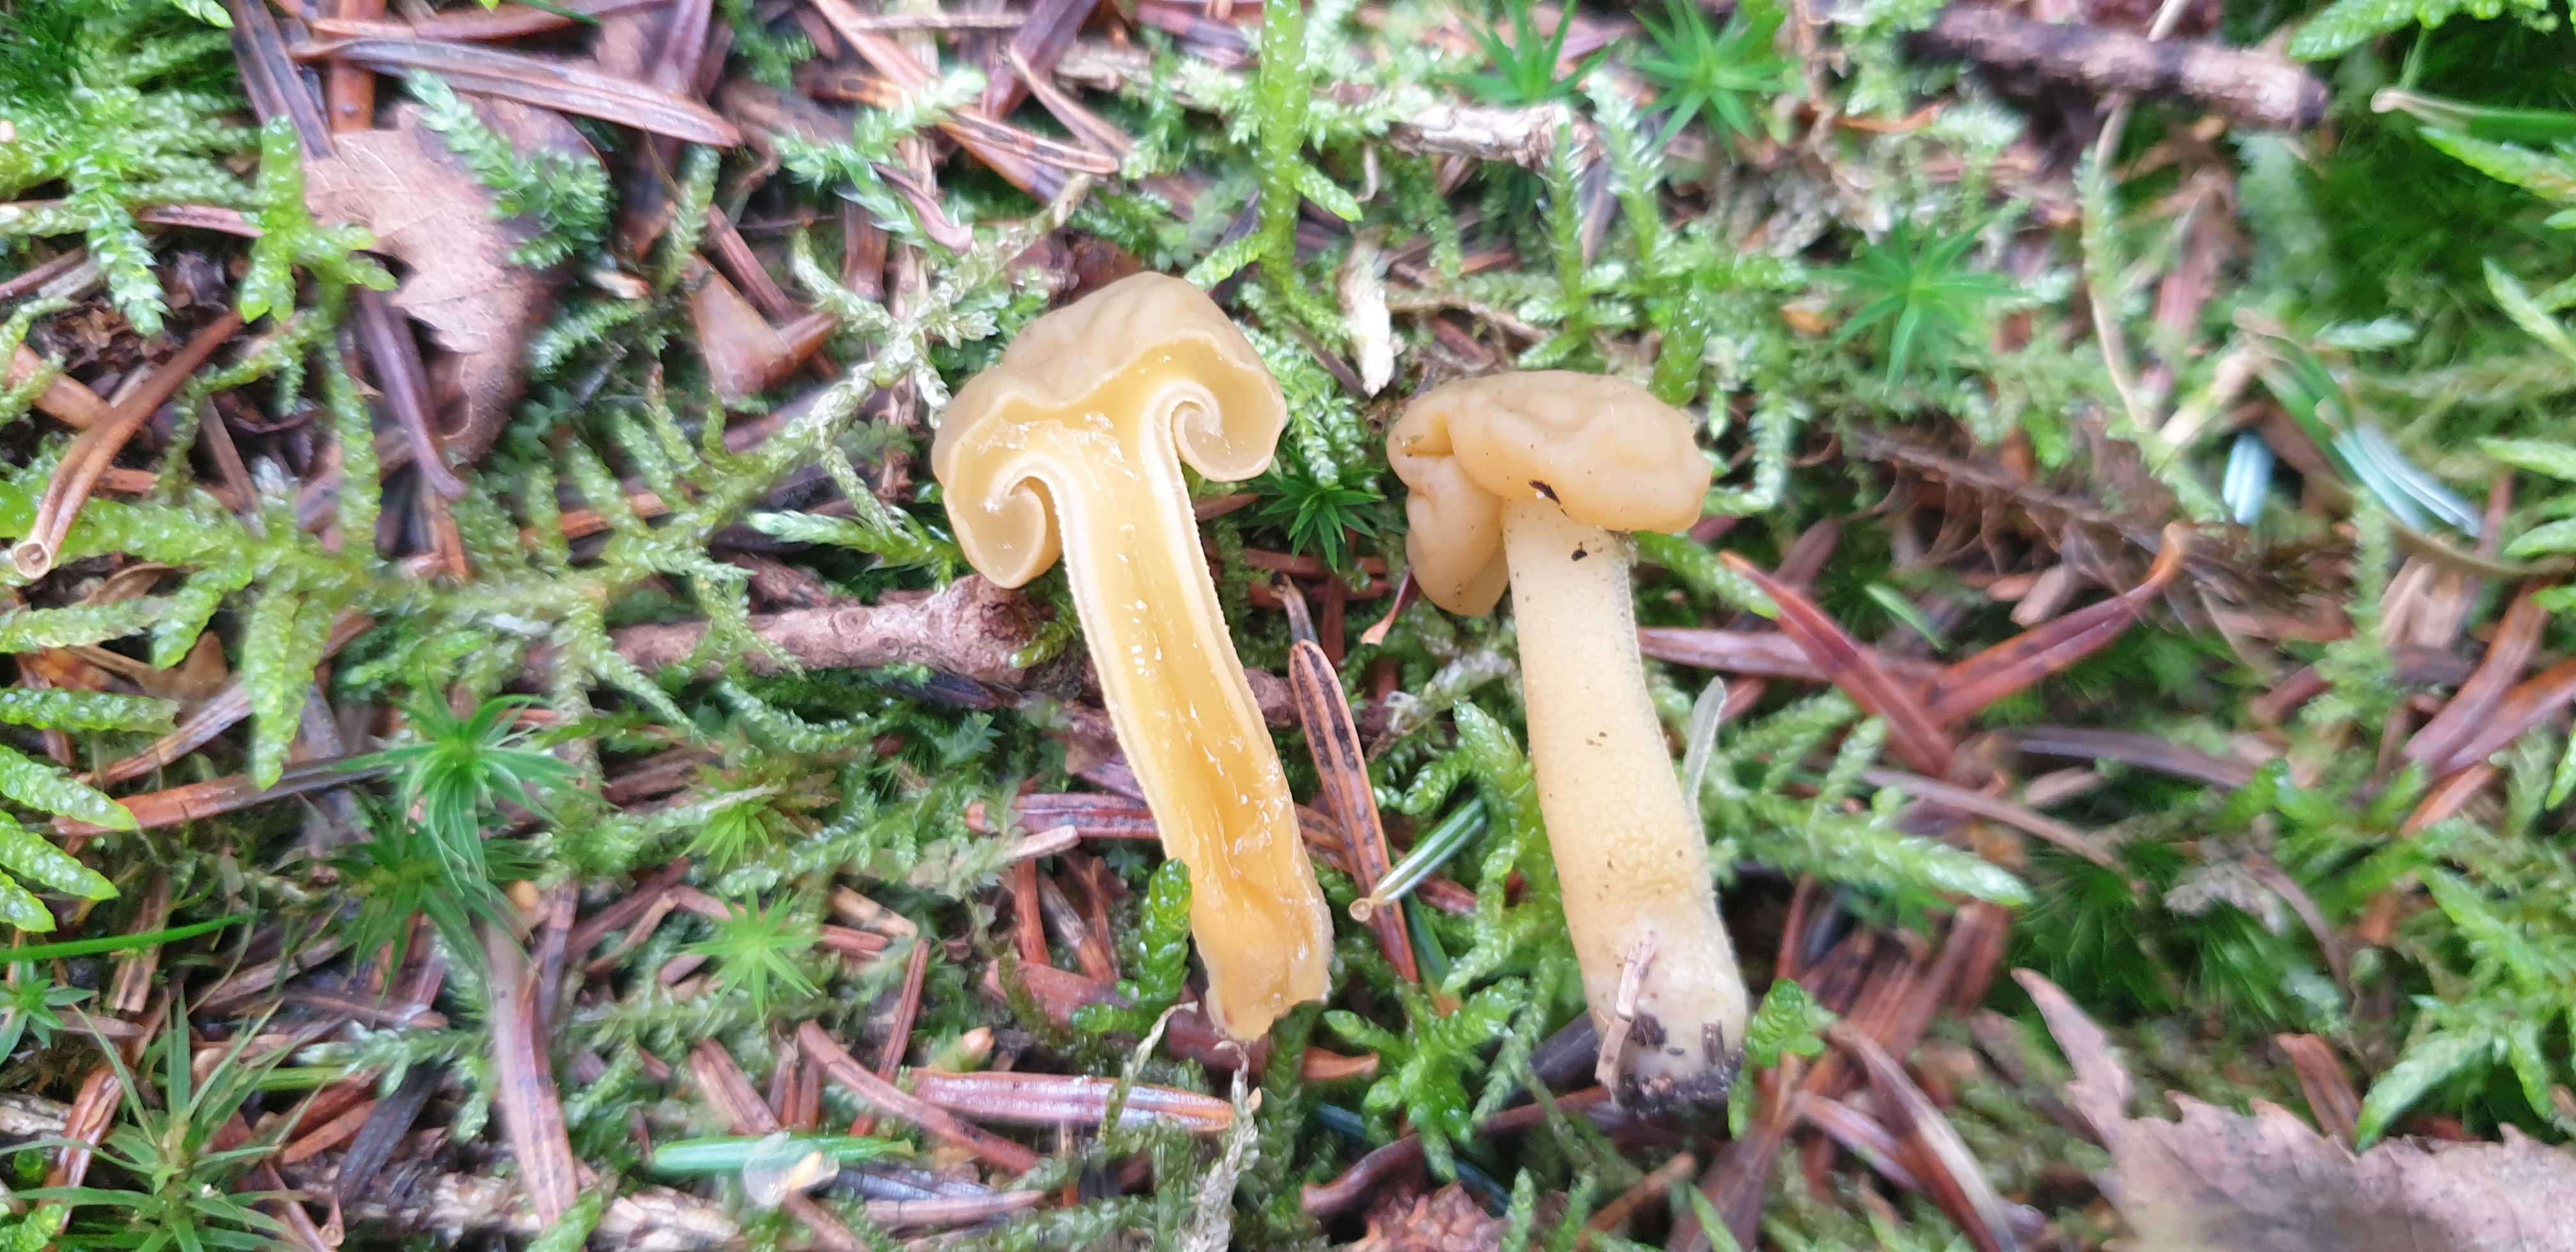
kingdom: Fungi
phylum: Ascomycota
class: Leotiomycetes
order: Leotiales
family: Leotiaceae
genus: Leotia
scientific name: Leotia lubrica
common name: ravsvamp
